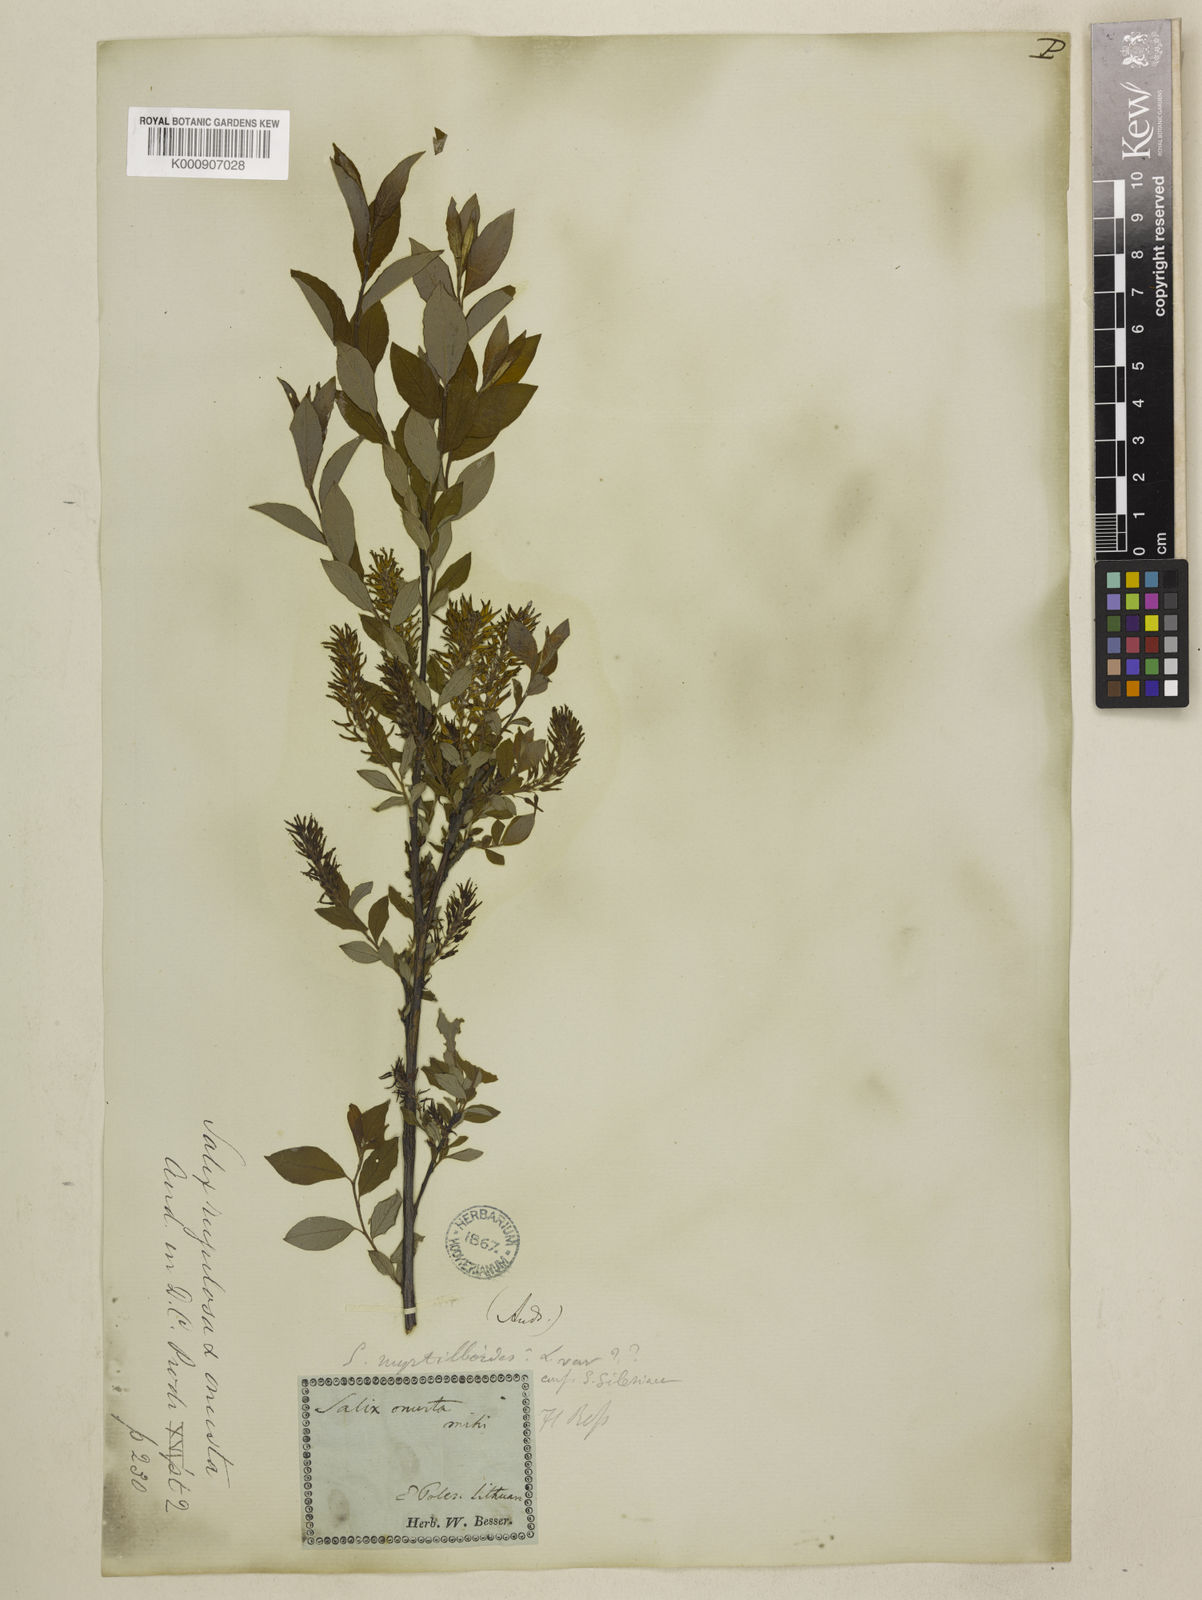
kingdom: Plantae
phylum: Tracheophyta
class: Magnoliopsida
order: Malpighiales
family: Salicaceae
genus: Salix
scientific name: Salix aurita
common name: Eared willow
